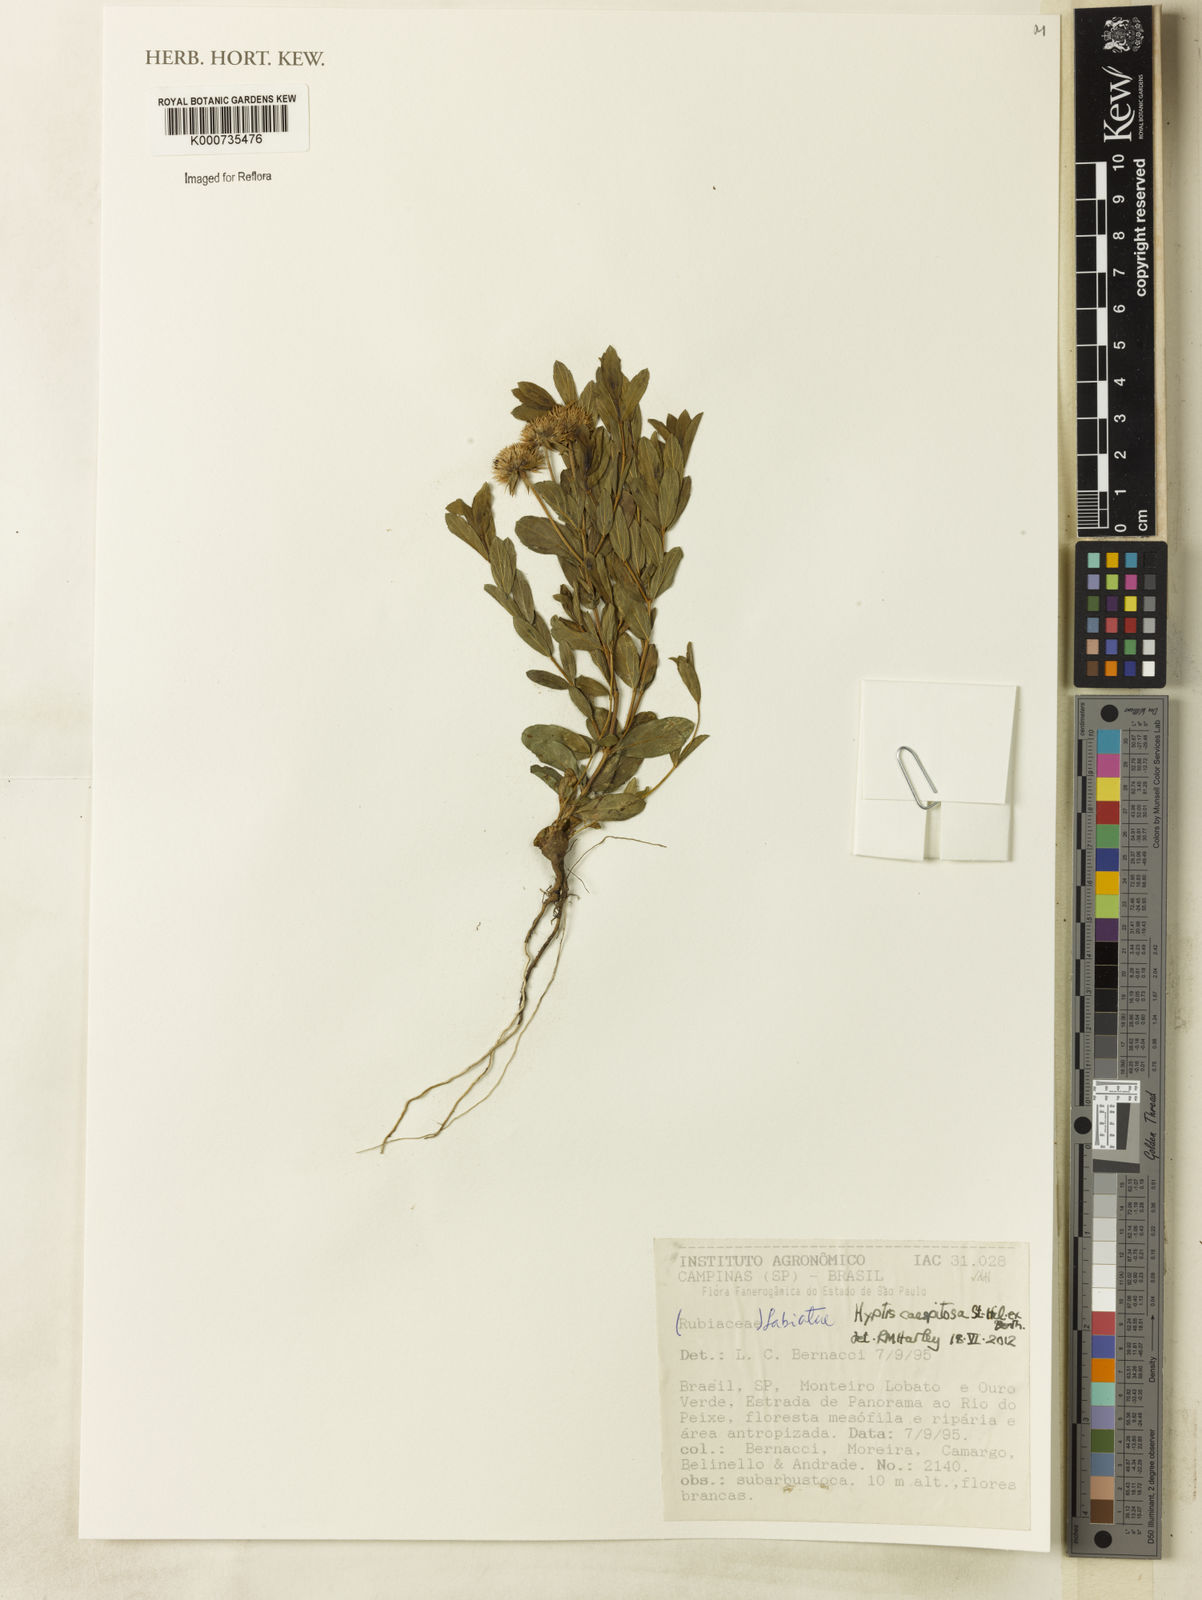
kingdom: Plantae
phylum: Tracheophyta
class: Magnoliopsida
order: Lamiales
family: Lamiaceae
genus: Hyptis
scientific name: Hyptis caespitosa
